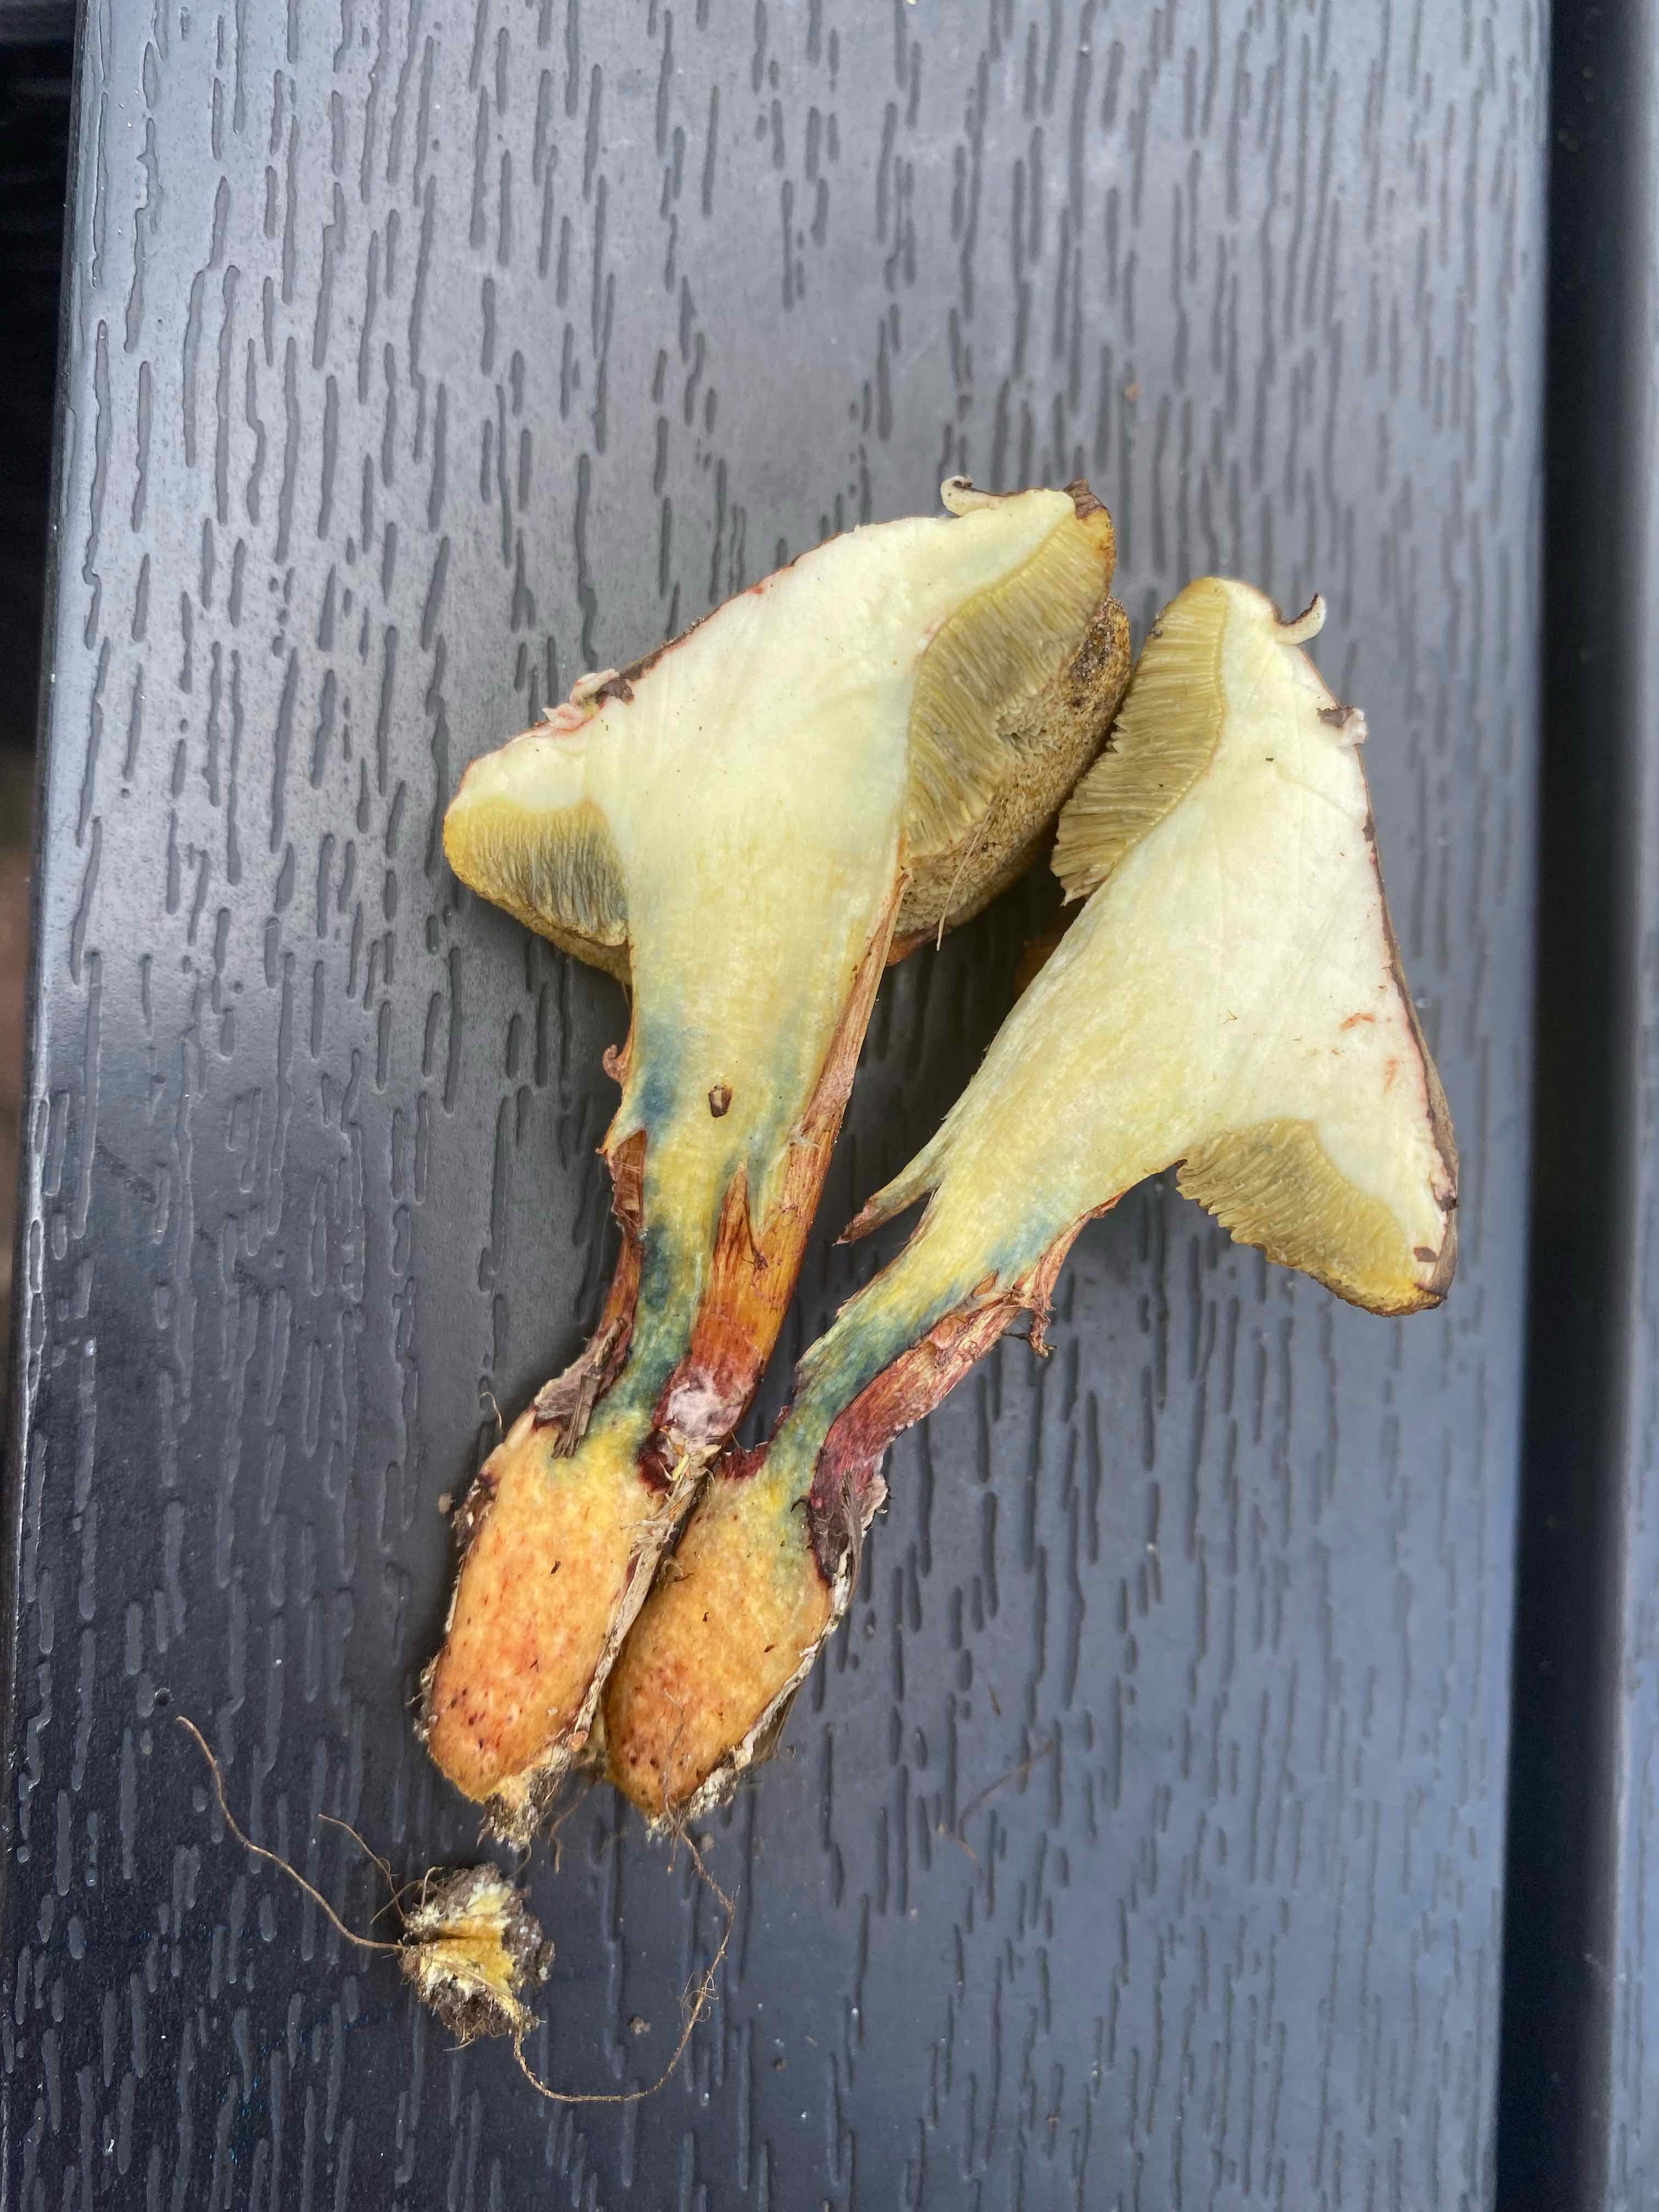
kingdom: Fungi
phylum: Basidiomycota
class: Agaricomycetes
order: Boletales
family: Boletaceae
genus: Xerocomellus
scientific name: Xerocomellus pruinatus
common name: dugget rørhat
